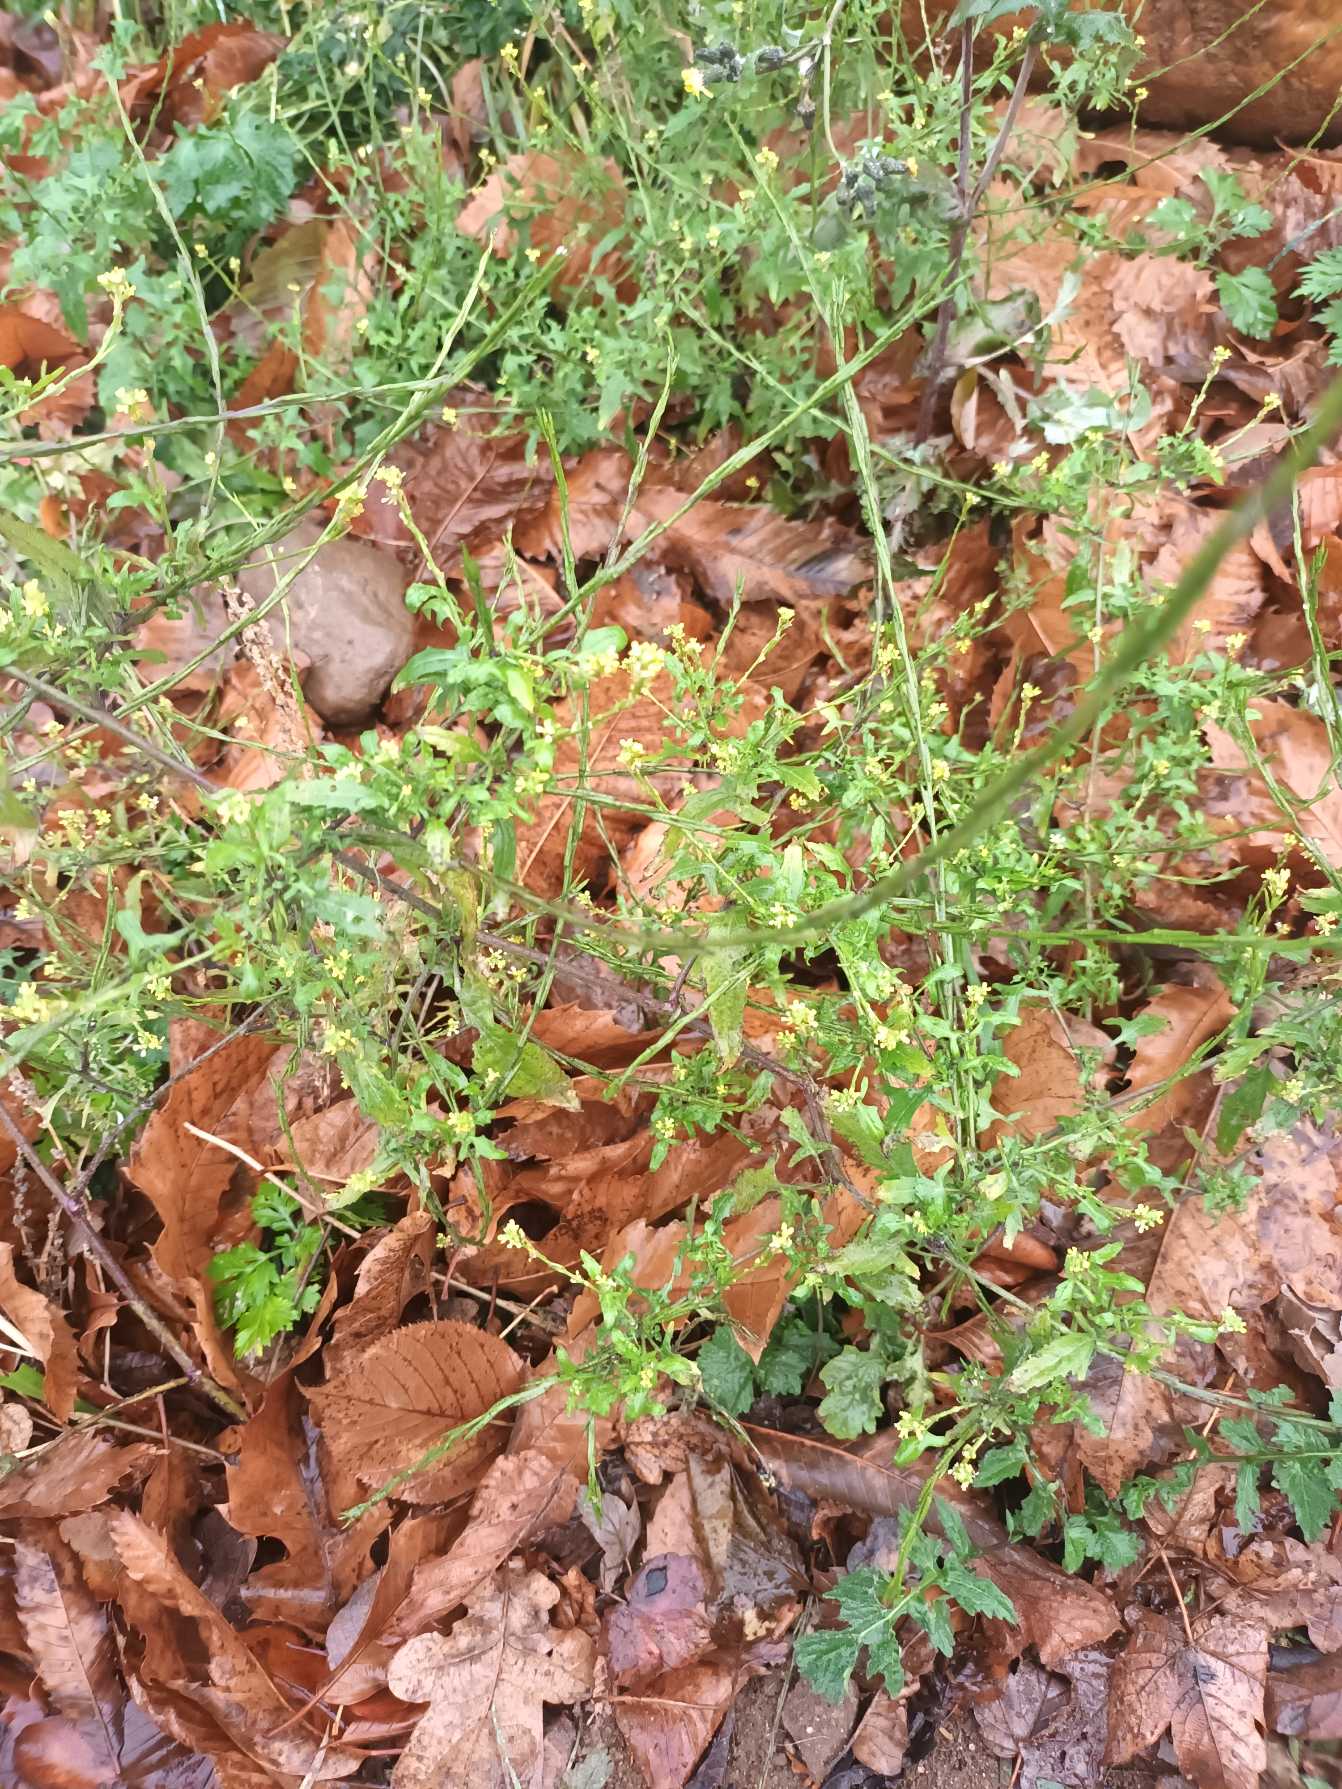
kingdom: Plantae
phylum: Tracheophyta
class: Magnoliopsida
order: Brassicales
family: Brassicaceae
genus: Sisymbrium
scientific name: Sisymbrium officinale
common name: Rank vejsennep
